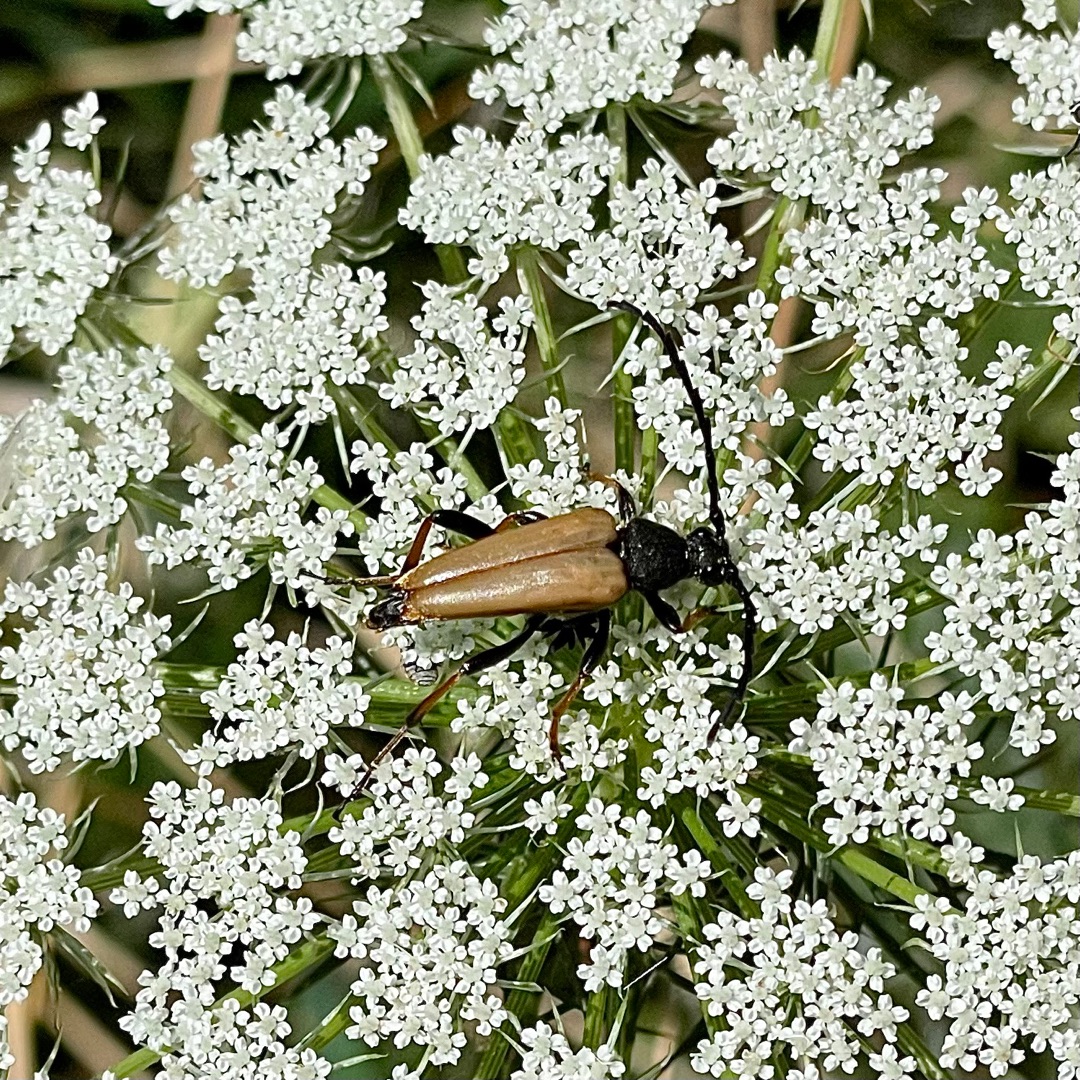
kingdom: Animalia
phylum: Arthropoda
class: Insecta
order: Coleoptera
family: Cerambycidae
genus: Stictoleptura
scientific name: Stictoleptura rubra
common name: Rød blomsterbuk
